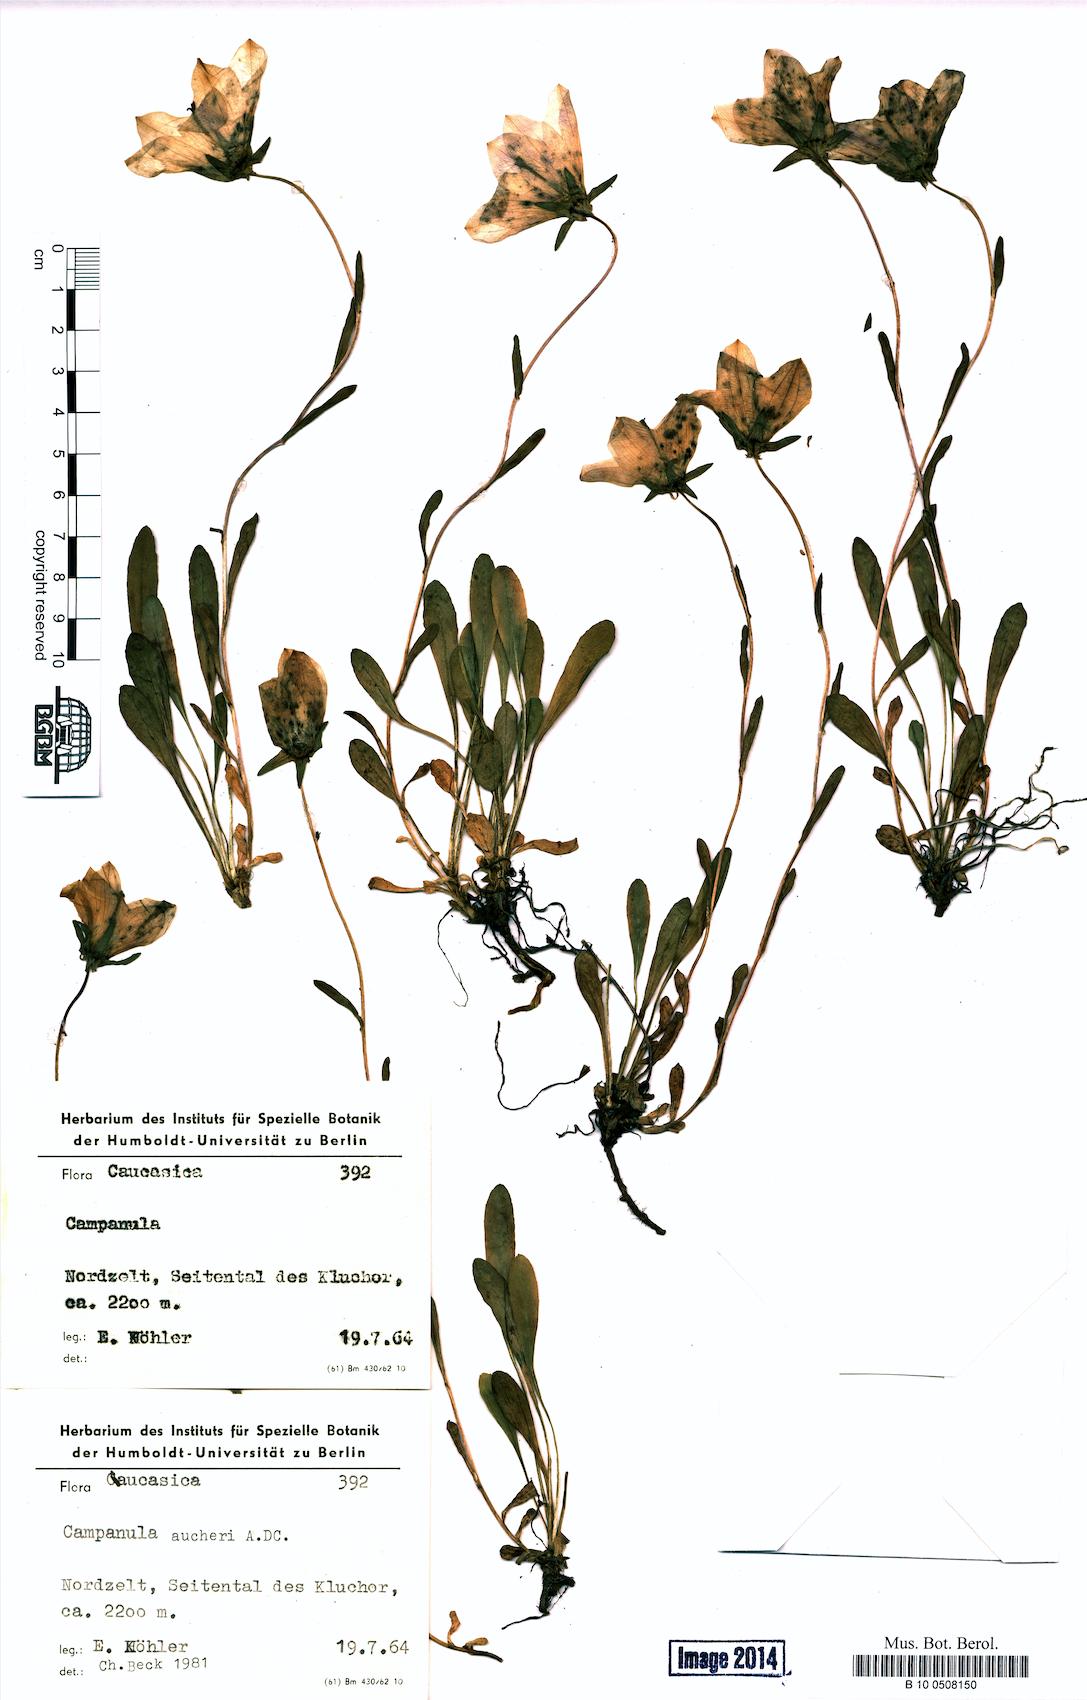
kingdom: Plantae
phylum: Tracheophyta
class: Magnoliopsida
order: Asterales
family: Campanulaceae
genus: Campanula
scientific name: Campanula saxifraga
